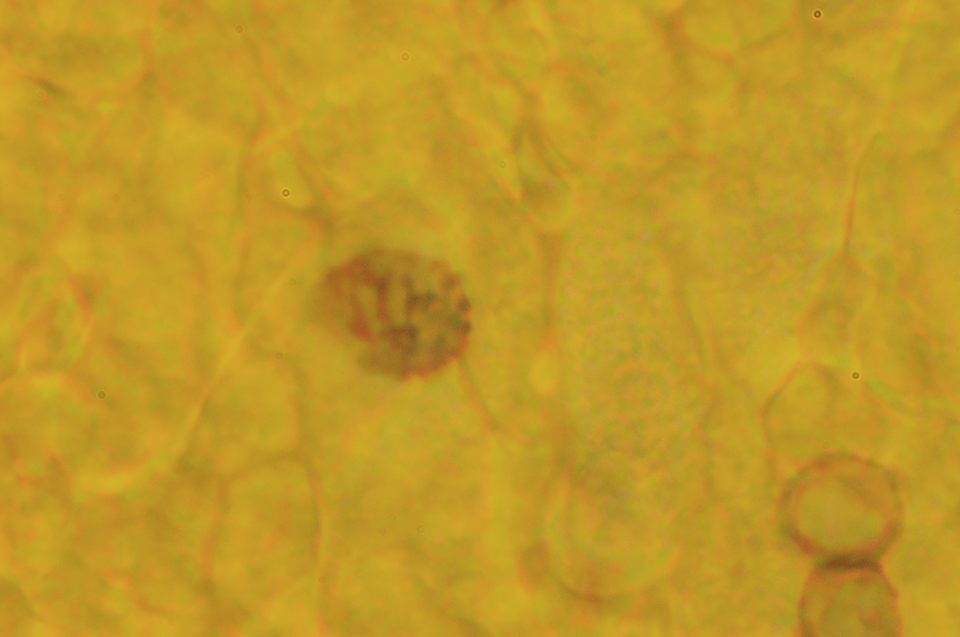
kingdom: Fungi
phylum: Basidiomycota
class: Agaricomycetes
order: Russulales
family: Russulaceae
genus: Russula
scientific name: Russula laccata
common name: klit-skørhat
